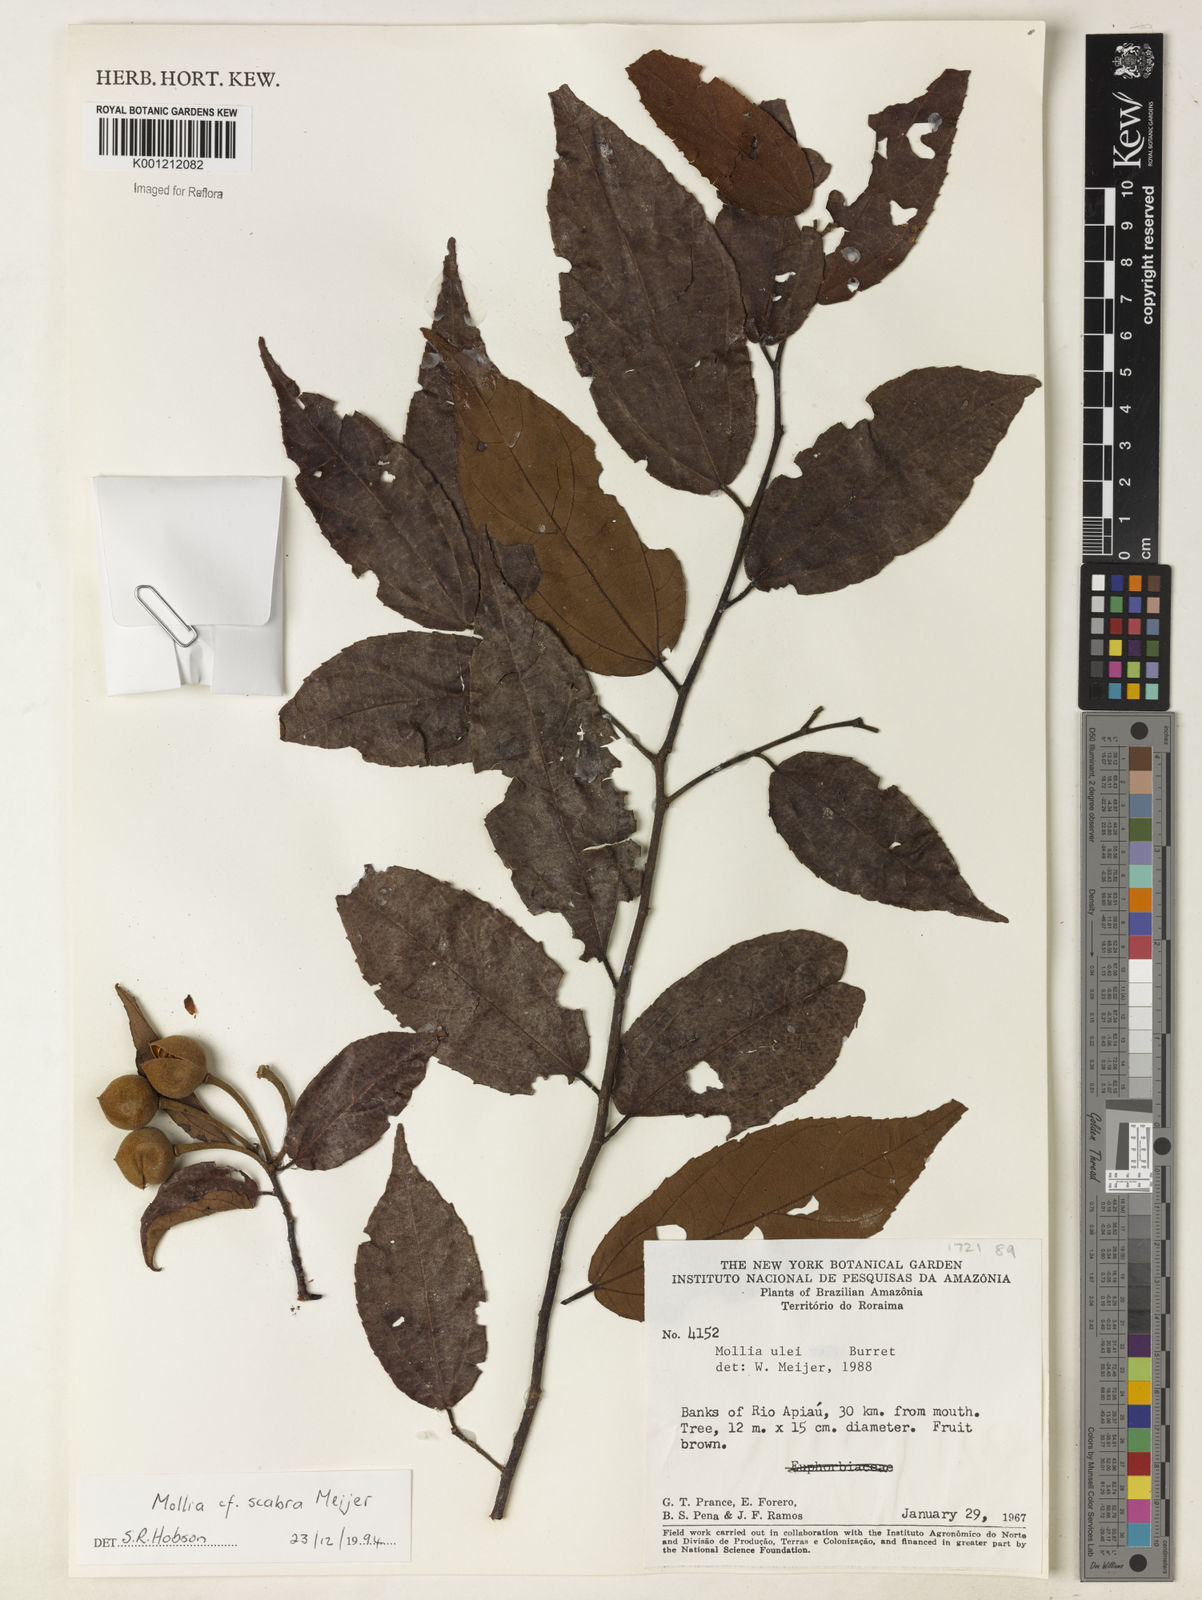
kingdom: Plantae
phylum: Tracheophyta
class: Magnoliopsida
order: Malvales
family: Malvaceae
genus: Mollia
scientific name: Mollia ulei
